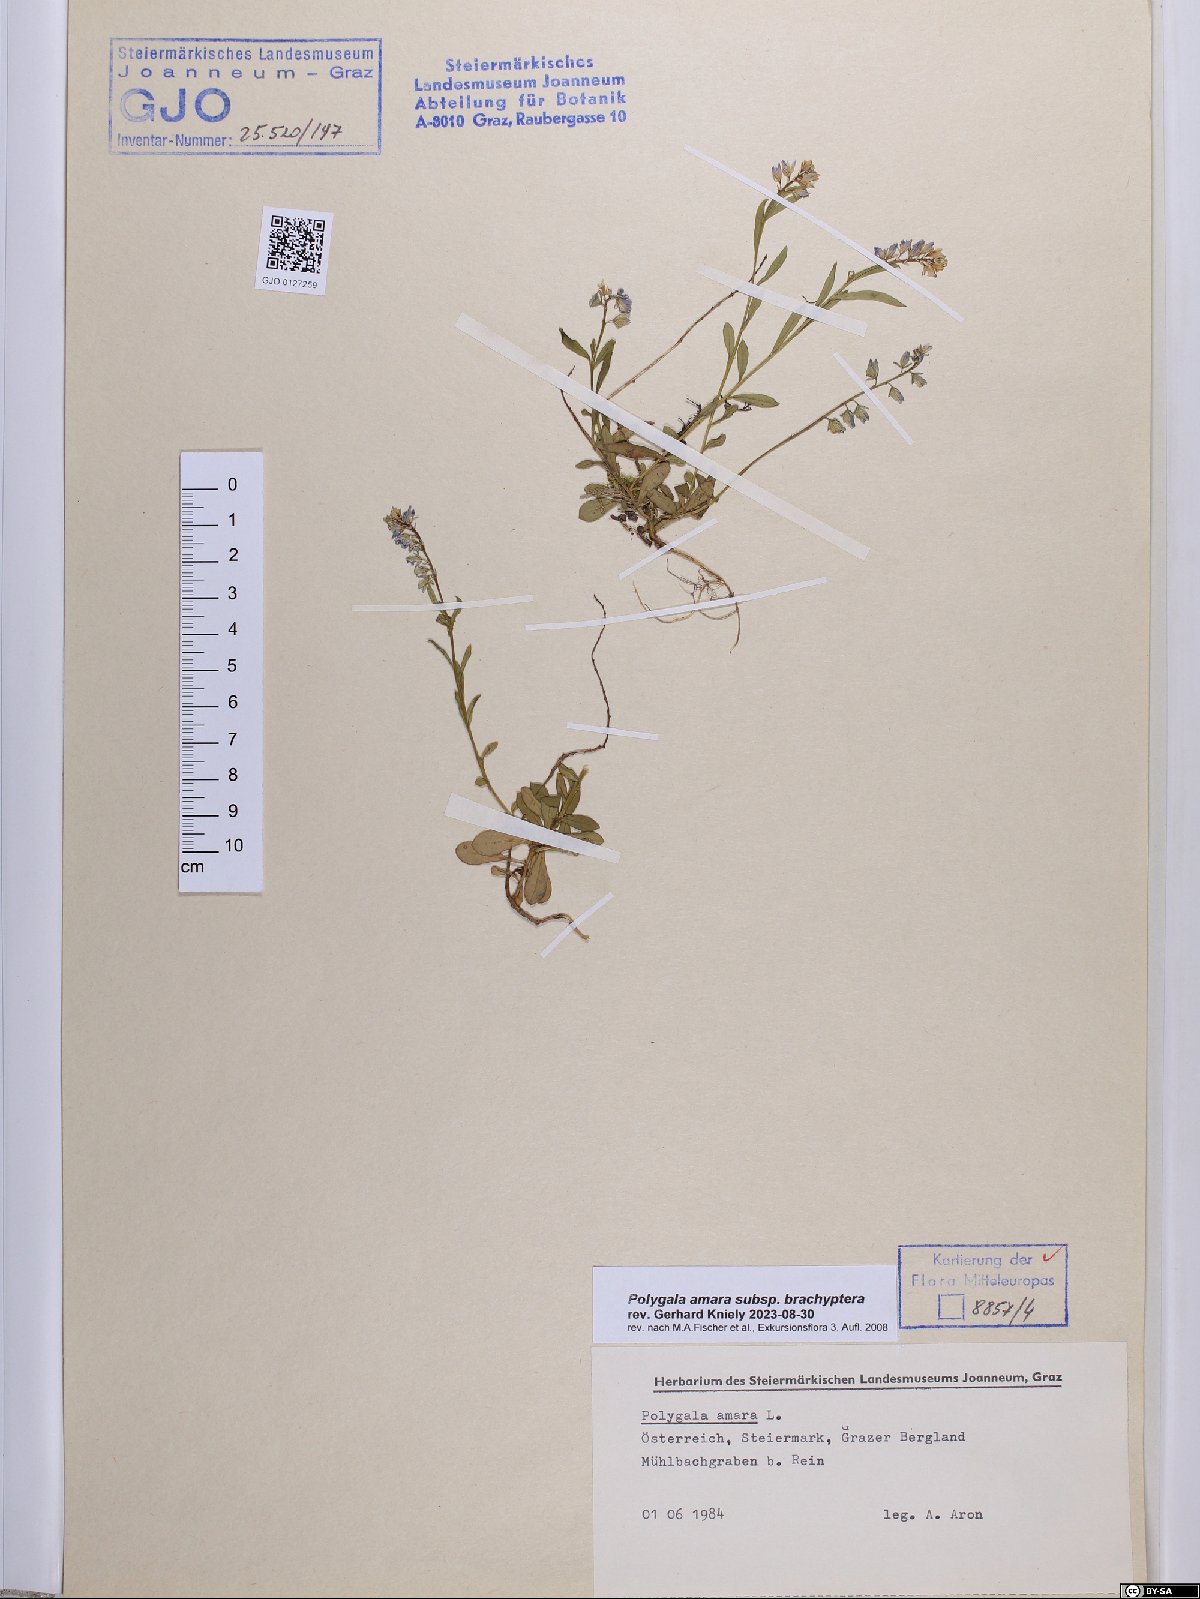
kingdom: Plantae
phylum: Tracheophyta
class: Magnoliopsida
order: Fabales
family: Polygalaceae
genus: Polygala
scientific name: Polygala amara
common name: Milkwort
